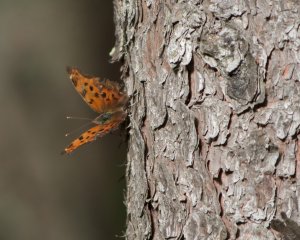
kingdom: Animalia
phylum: Arthropoda
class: Insecta
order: Lepidoptera
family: Nymphalidae
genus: Polygonia
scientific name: Polygonia comma
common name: Eastern Comma
